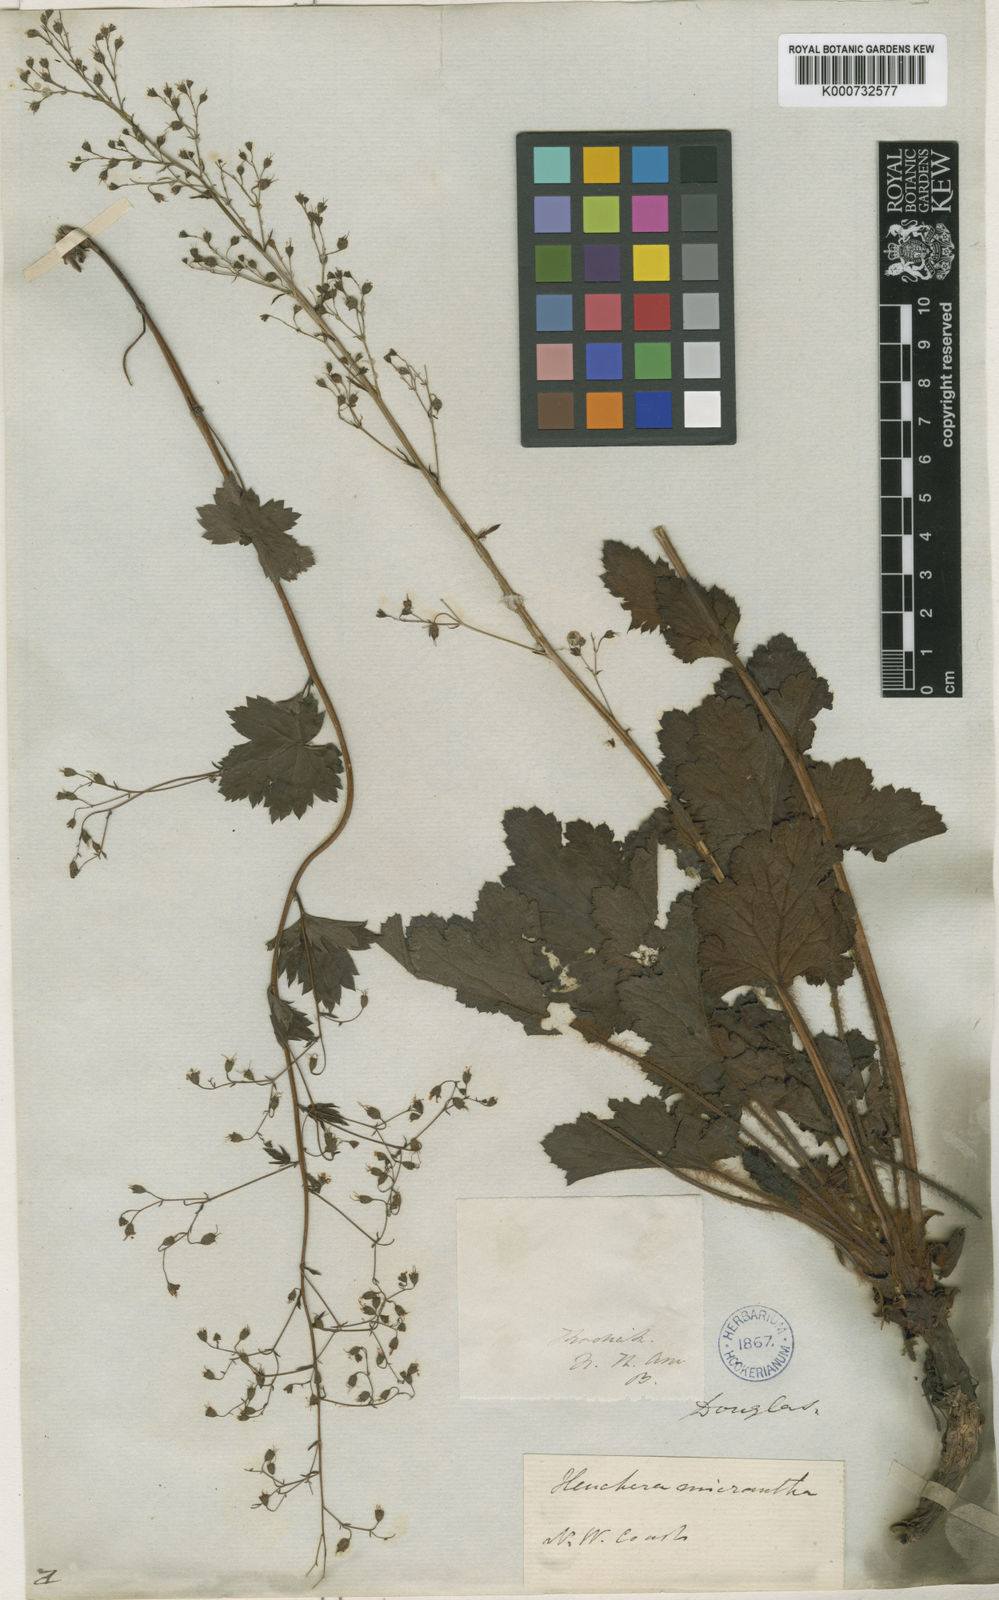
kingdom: Plantae
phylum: Tracheophyta
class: Magnoliopsida
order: Saxifragales
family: Saxifragaceae
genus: Heuchera
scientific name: Heuchera micrantha
